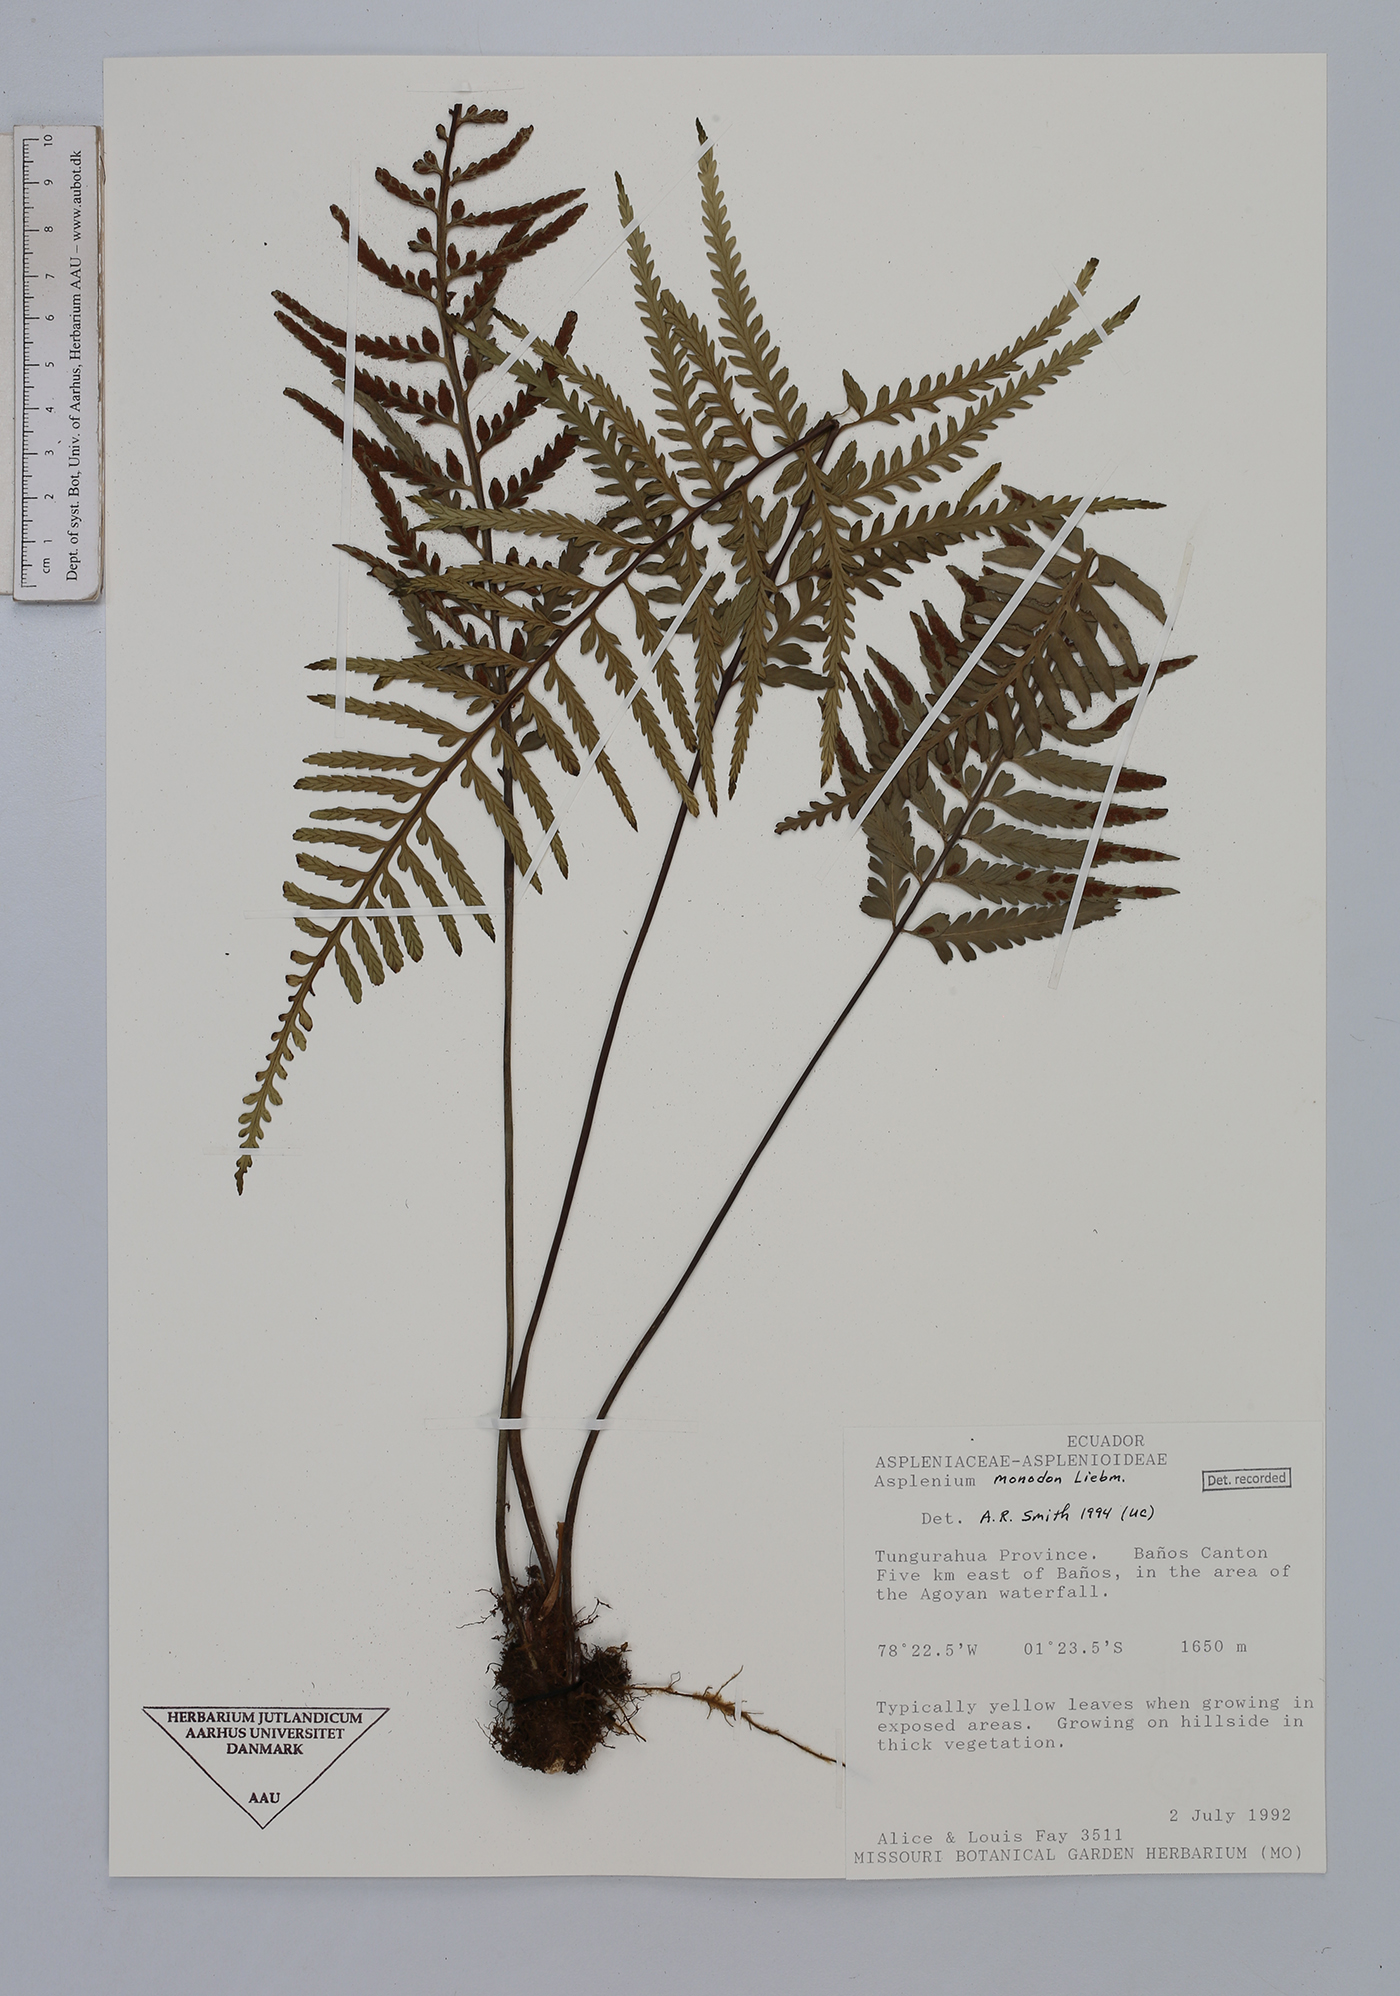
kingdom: Plantae
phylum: Tracheophyta
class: Polypodiopsida
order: Polypodiales
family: Aspleniaceae
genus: Asplenium
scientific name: Asplenium monodon
